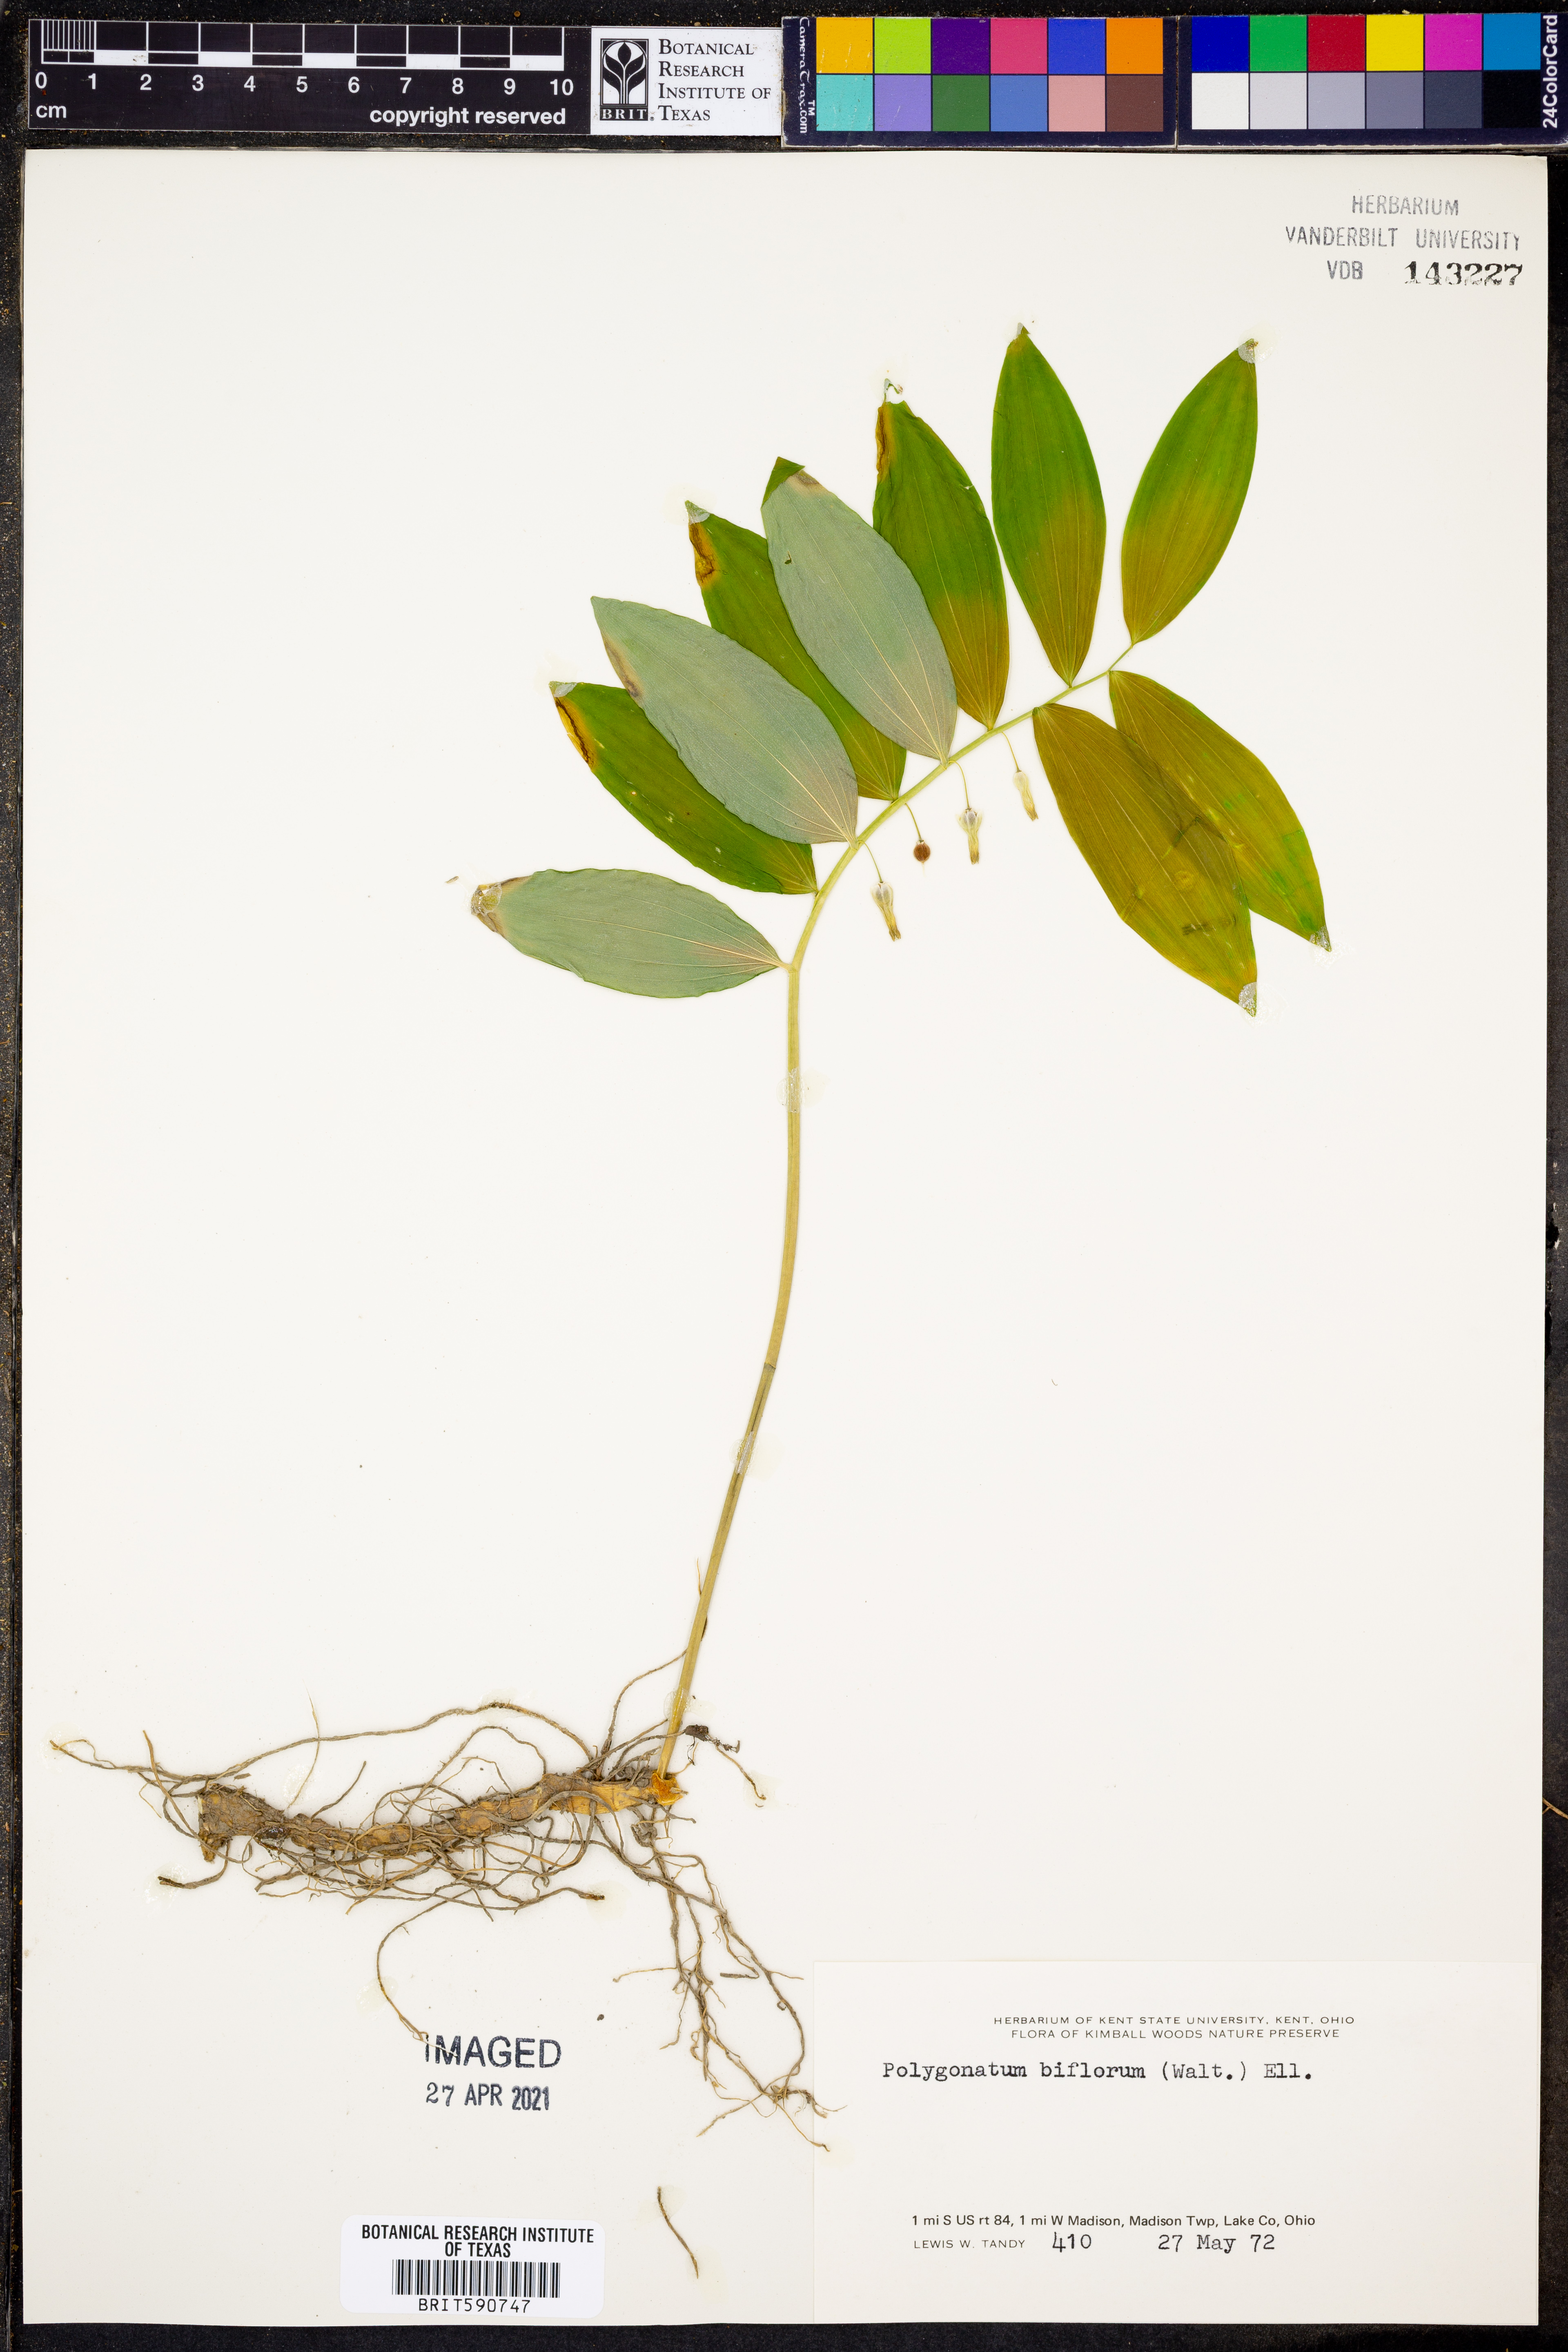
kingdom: Plantae
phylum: Tracheophyta
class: Liliopsida
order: Asparagales
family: Asparagaceae
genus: Polygonatum
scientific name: Polygonatum biflorum
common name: American solomon's-seal
